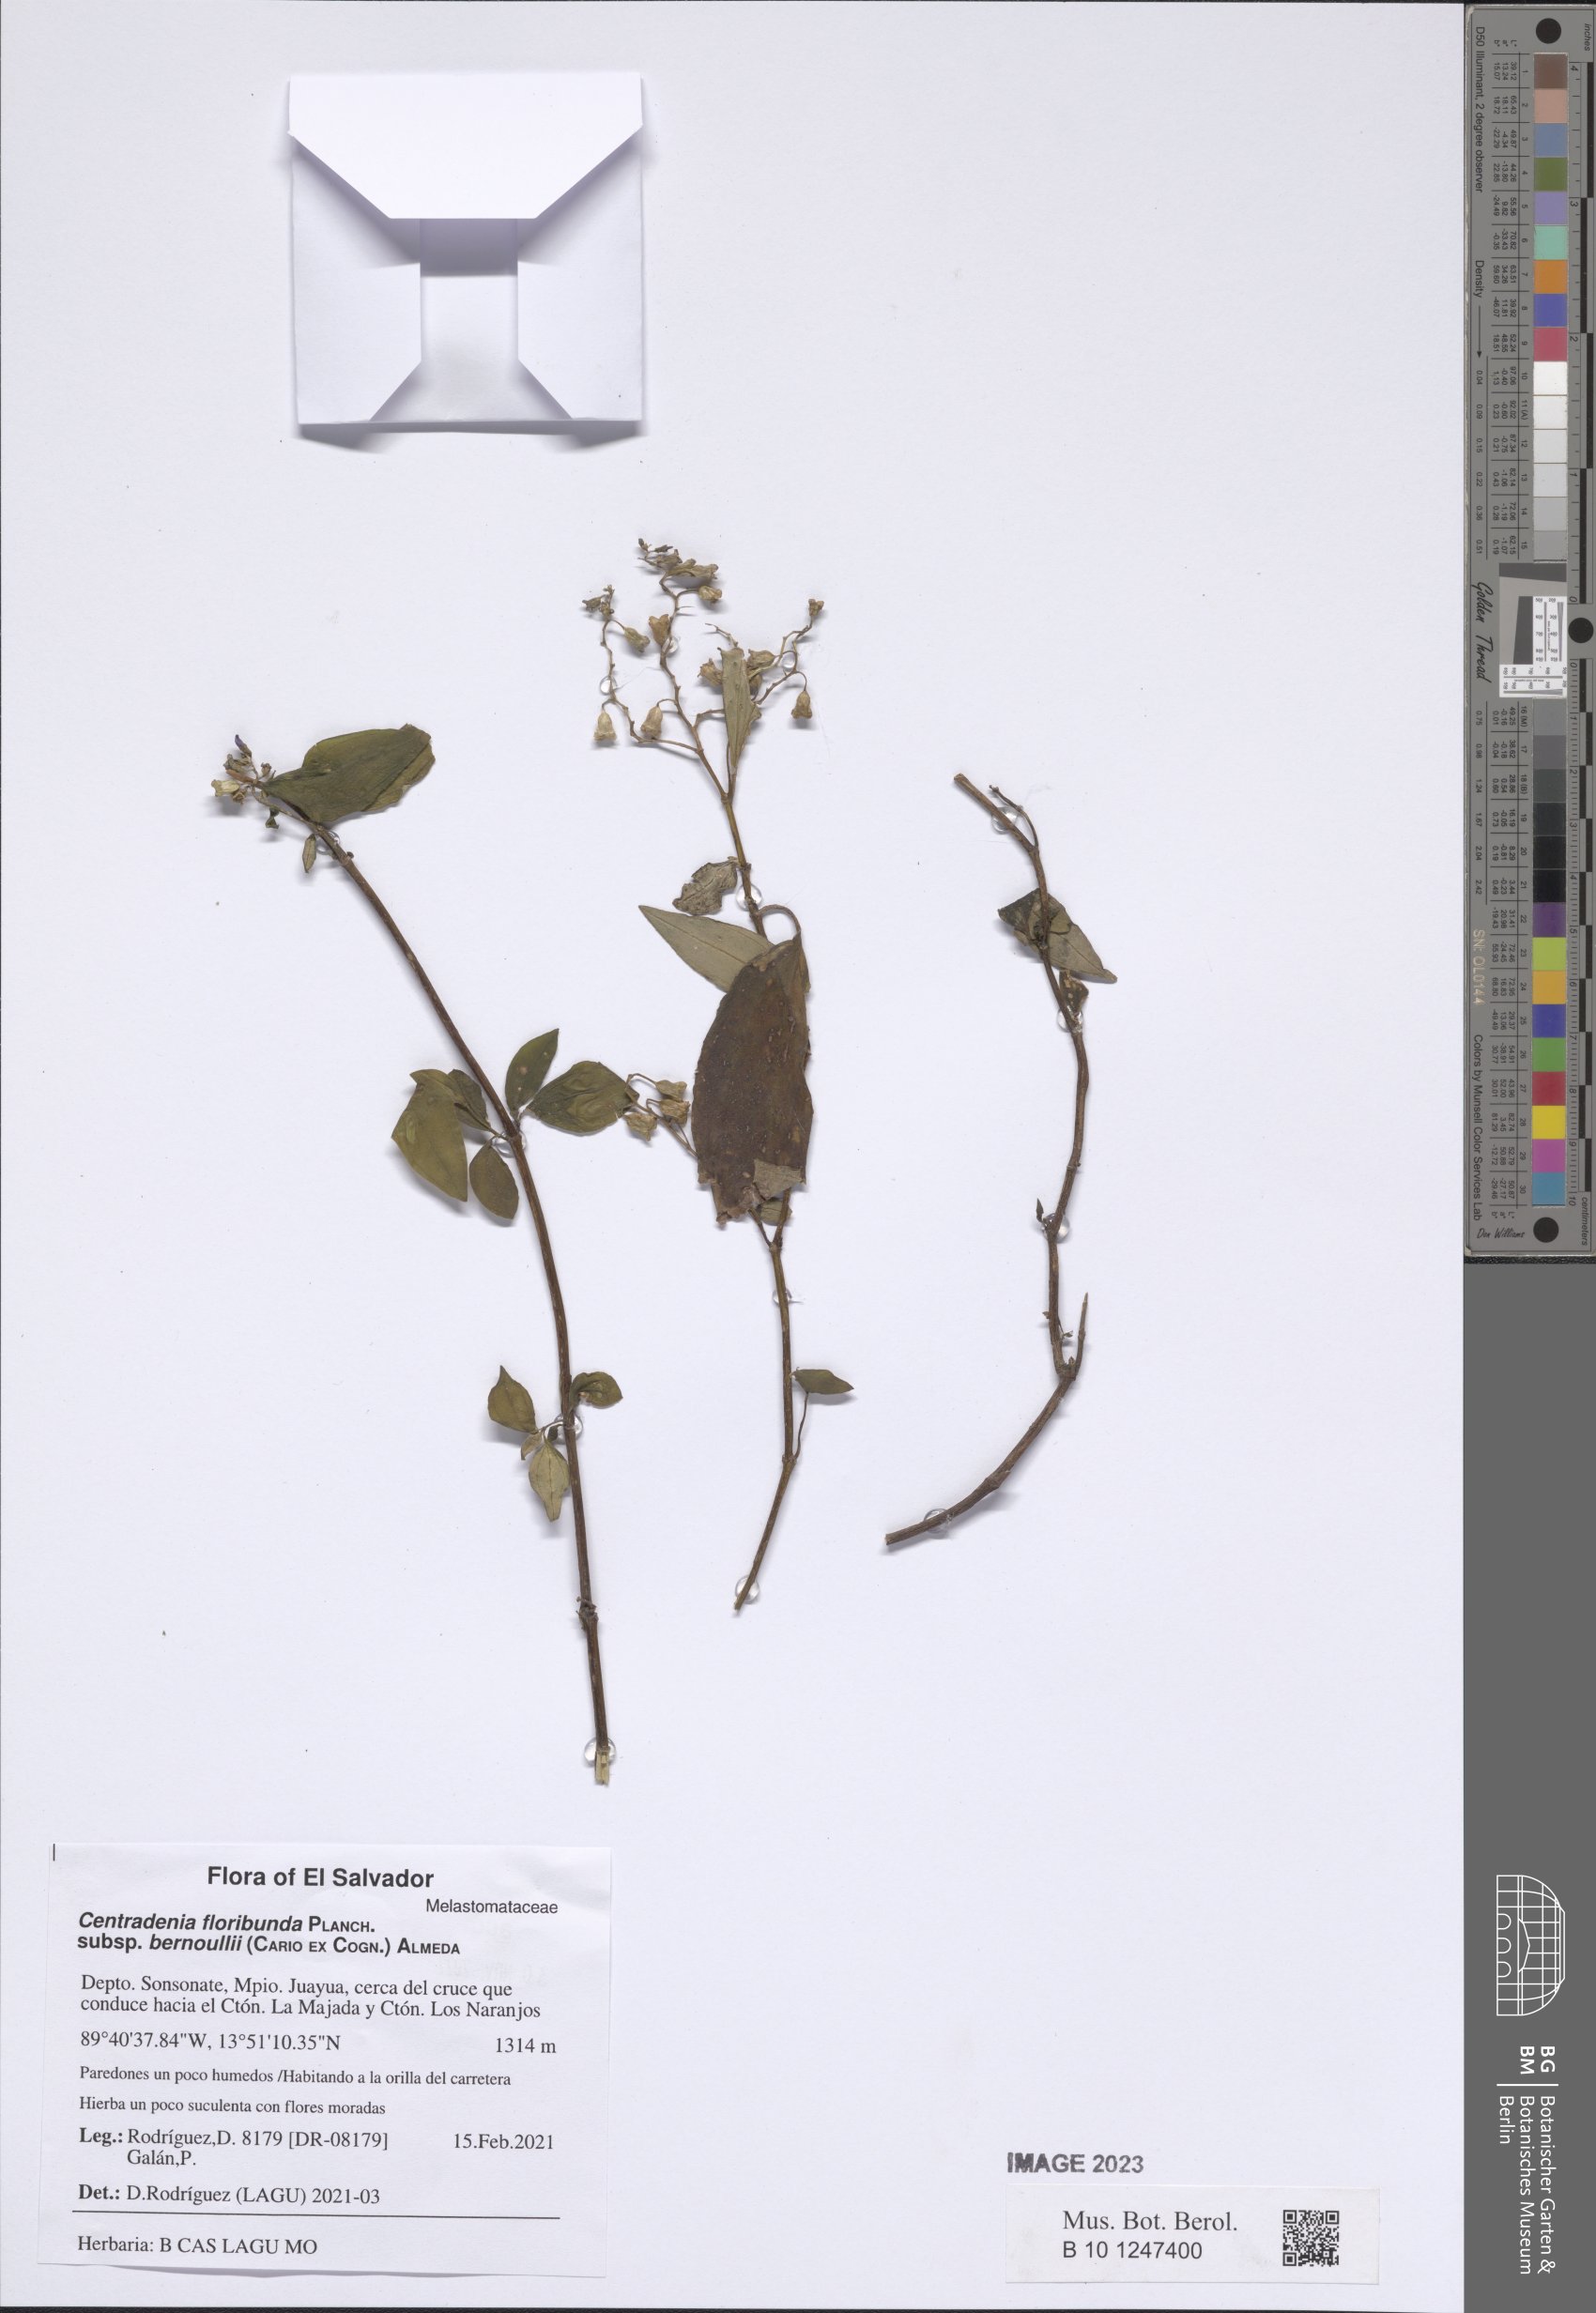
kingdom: Plantae
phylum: Tracheophyta
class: Magnoliopsida
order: Myrtales
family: Melastomataceae
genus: Centradenia
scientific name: Centradenia floribunda
